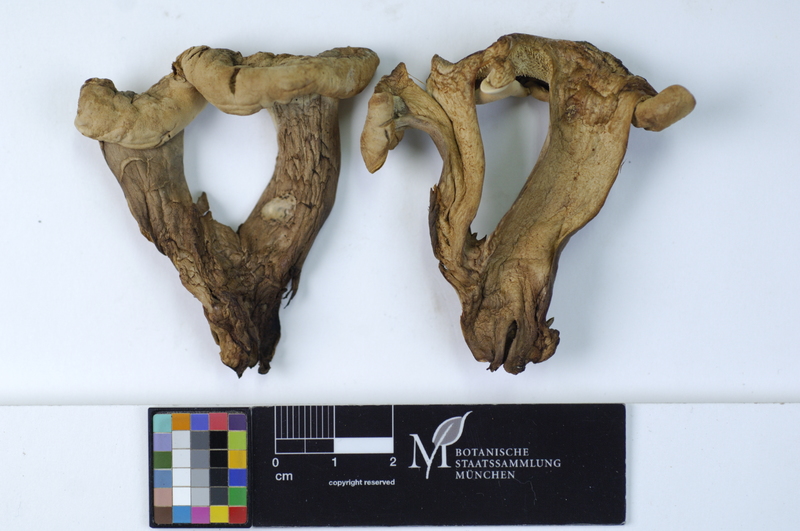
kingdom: Fungi
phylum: Basidiomycota
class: Agaricomycetes
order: Thelephorales
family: Thelephoraceae
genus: Phellodon
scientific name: Phellodon violascens
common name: Spruce tooth
